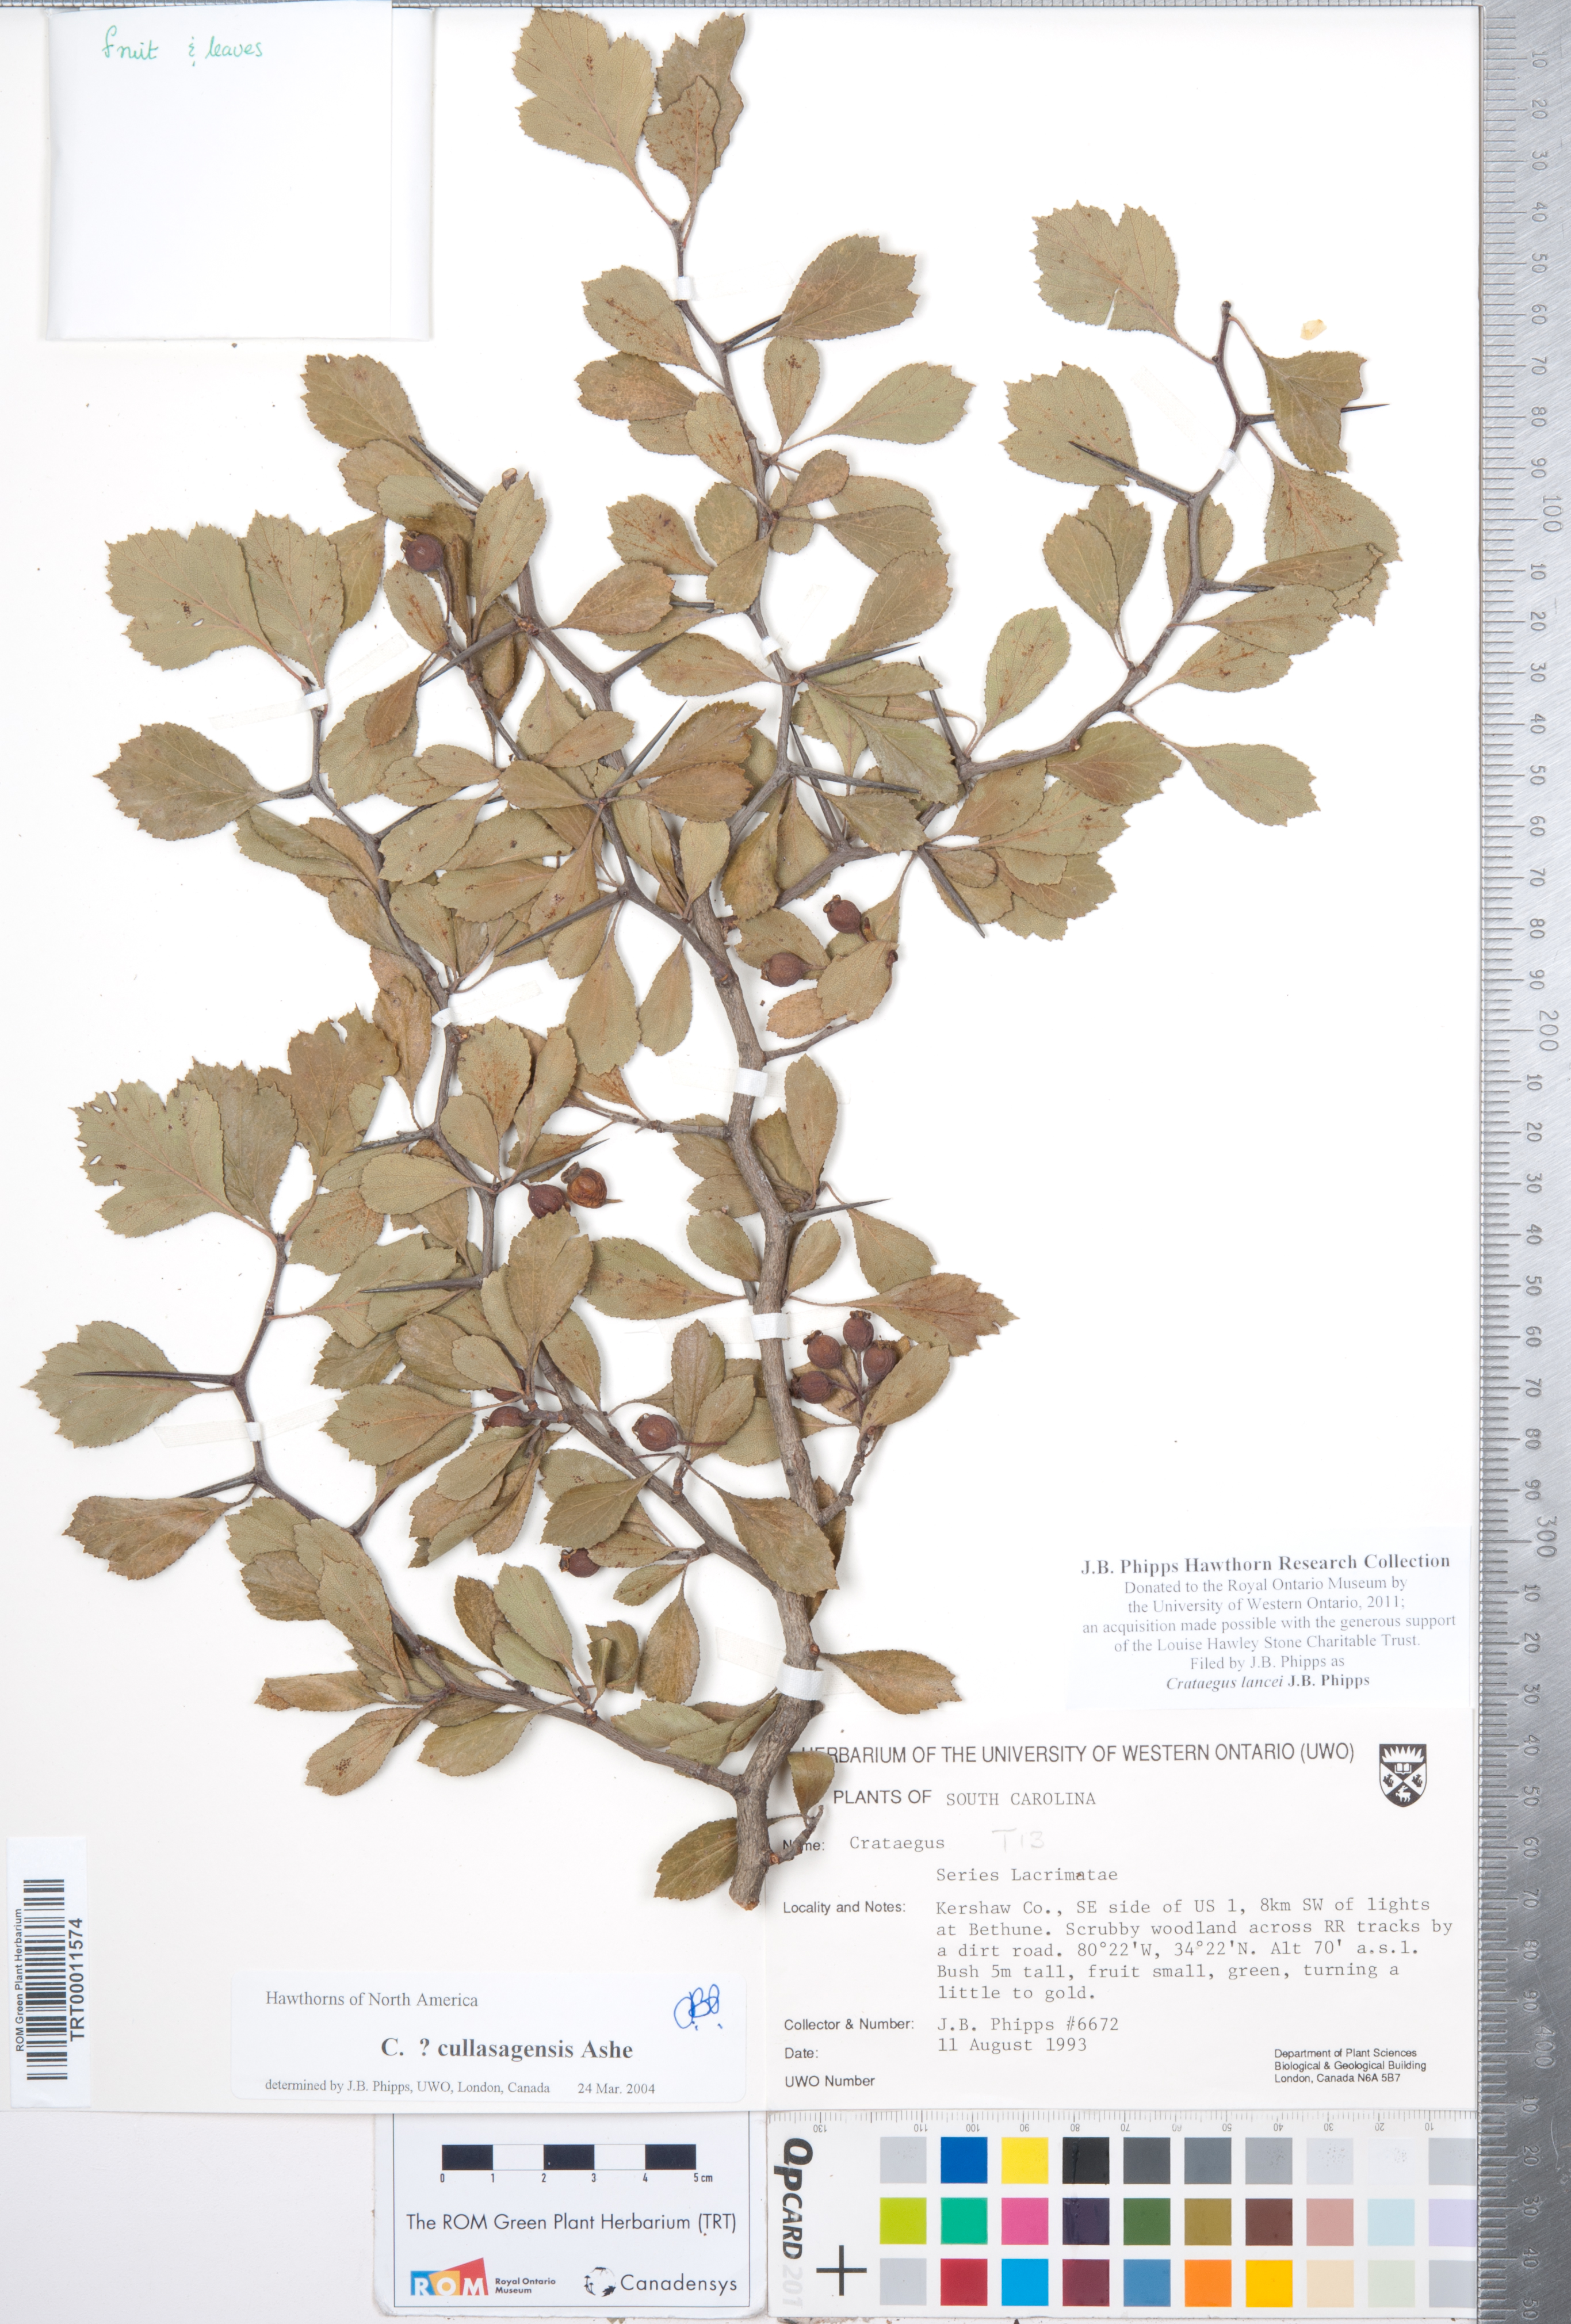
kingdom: Plantae
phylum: Tracheophyta
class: Magnoliopsida
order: Rosales
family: Rosaceae
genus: Crataegus
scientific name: Crataegus senta
